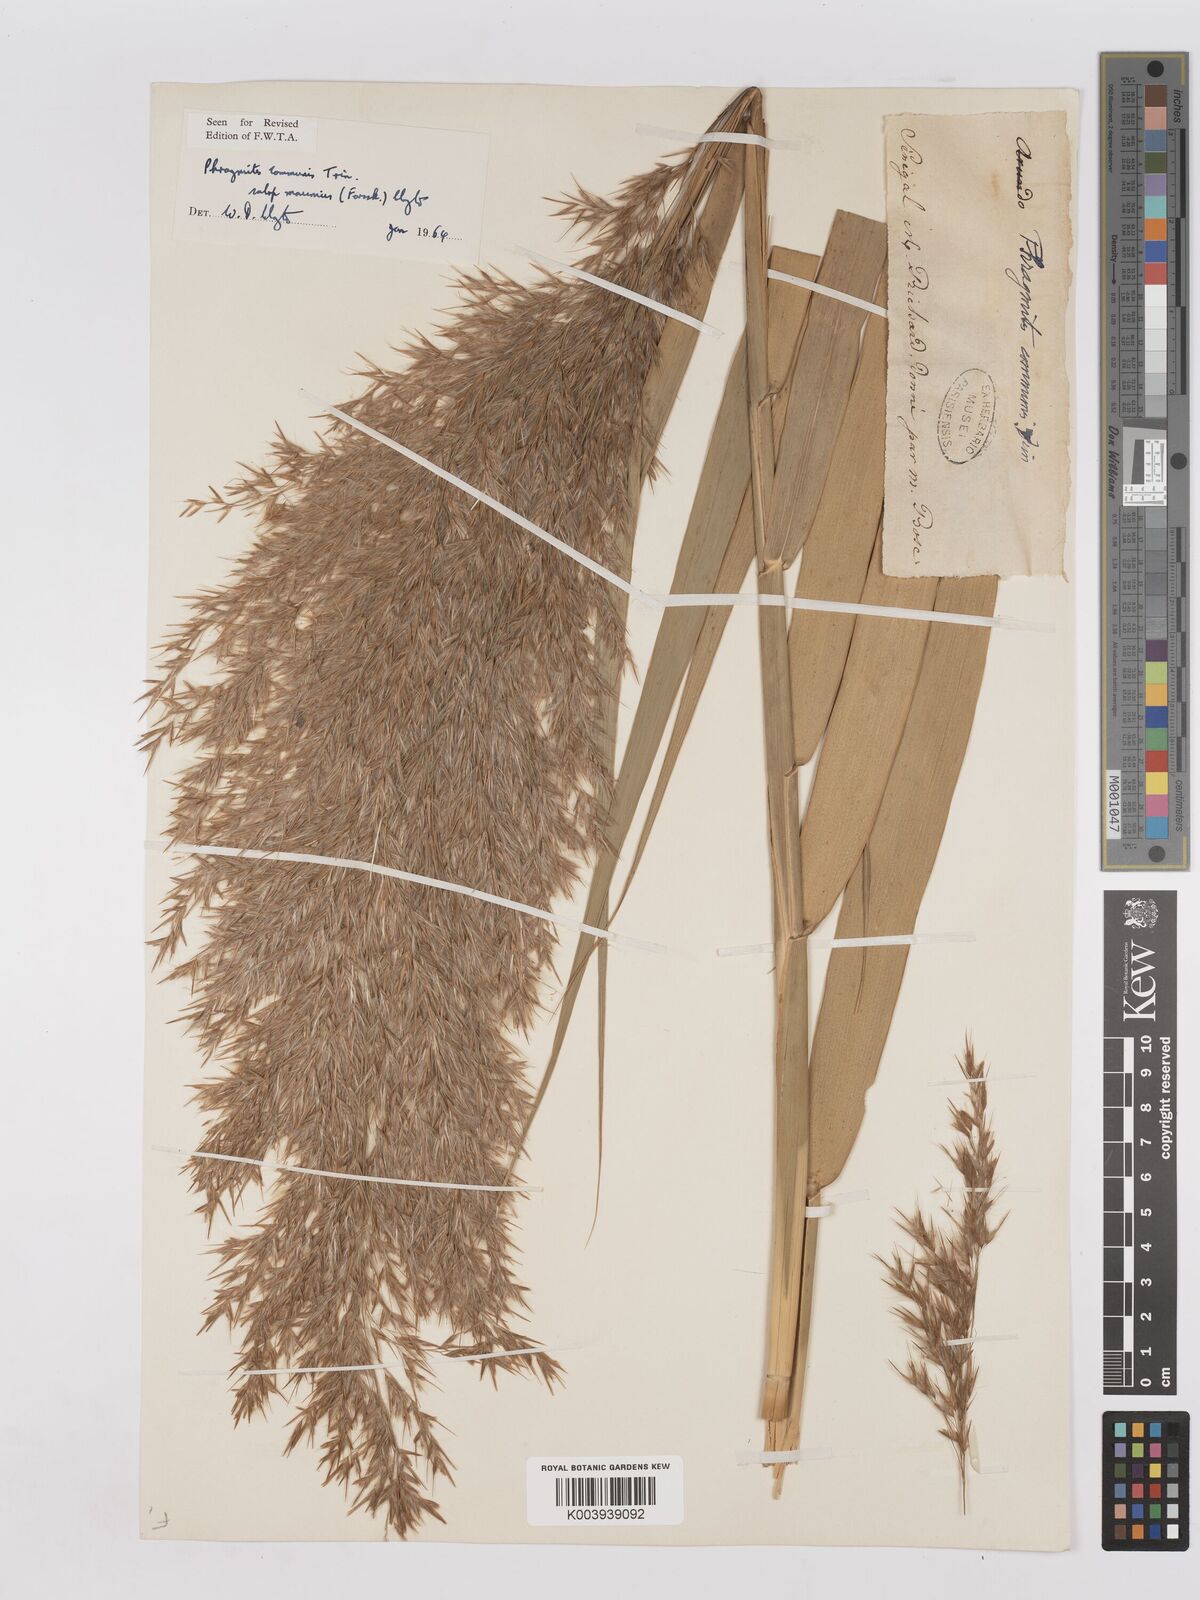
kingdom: Plantae
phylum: Tracheophyta
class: Liliopsida
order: Poales
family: Poaceae
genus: Phragmites
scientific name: Phragmites australis
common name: Common reed
